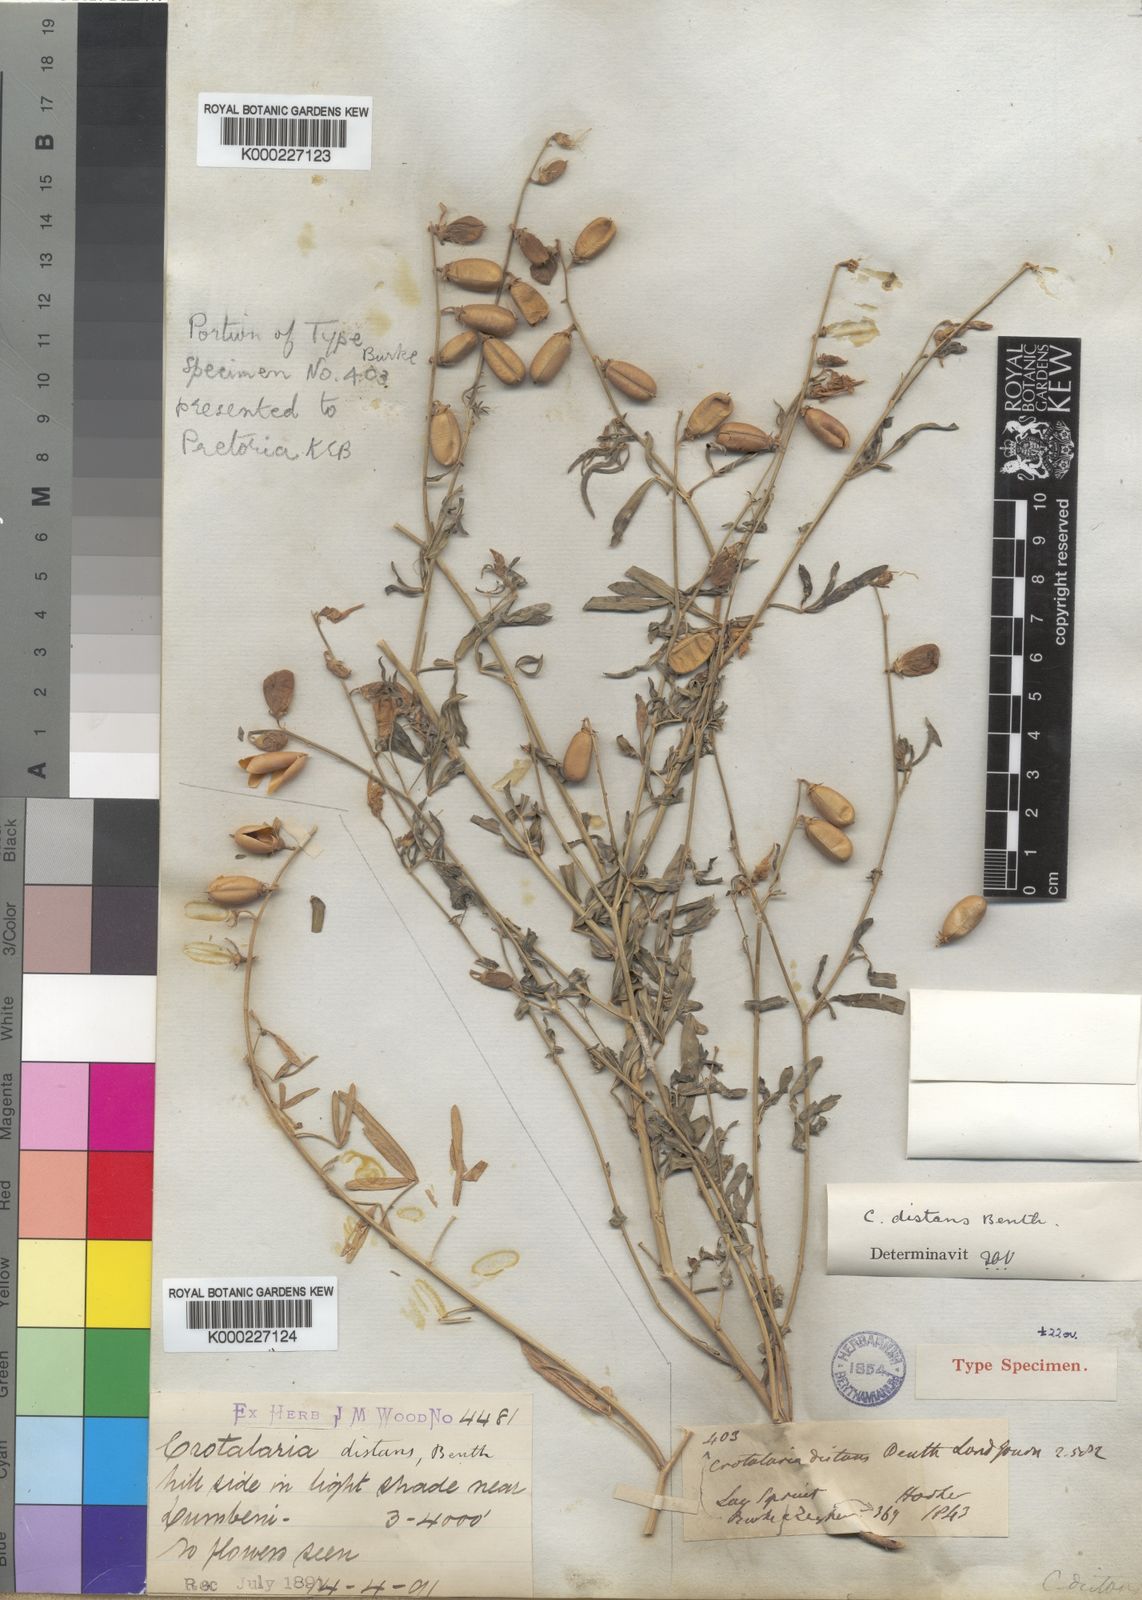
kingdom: Plantae
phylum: Tracheophyta
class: Magnoliopsida
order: Fabales
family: Fabaceae
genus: Crotalaria
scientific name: Crotalaria distans
